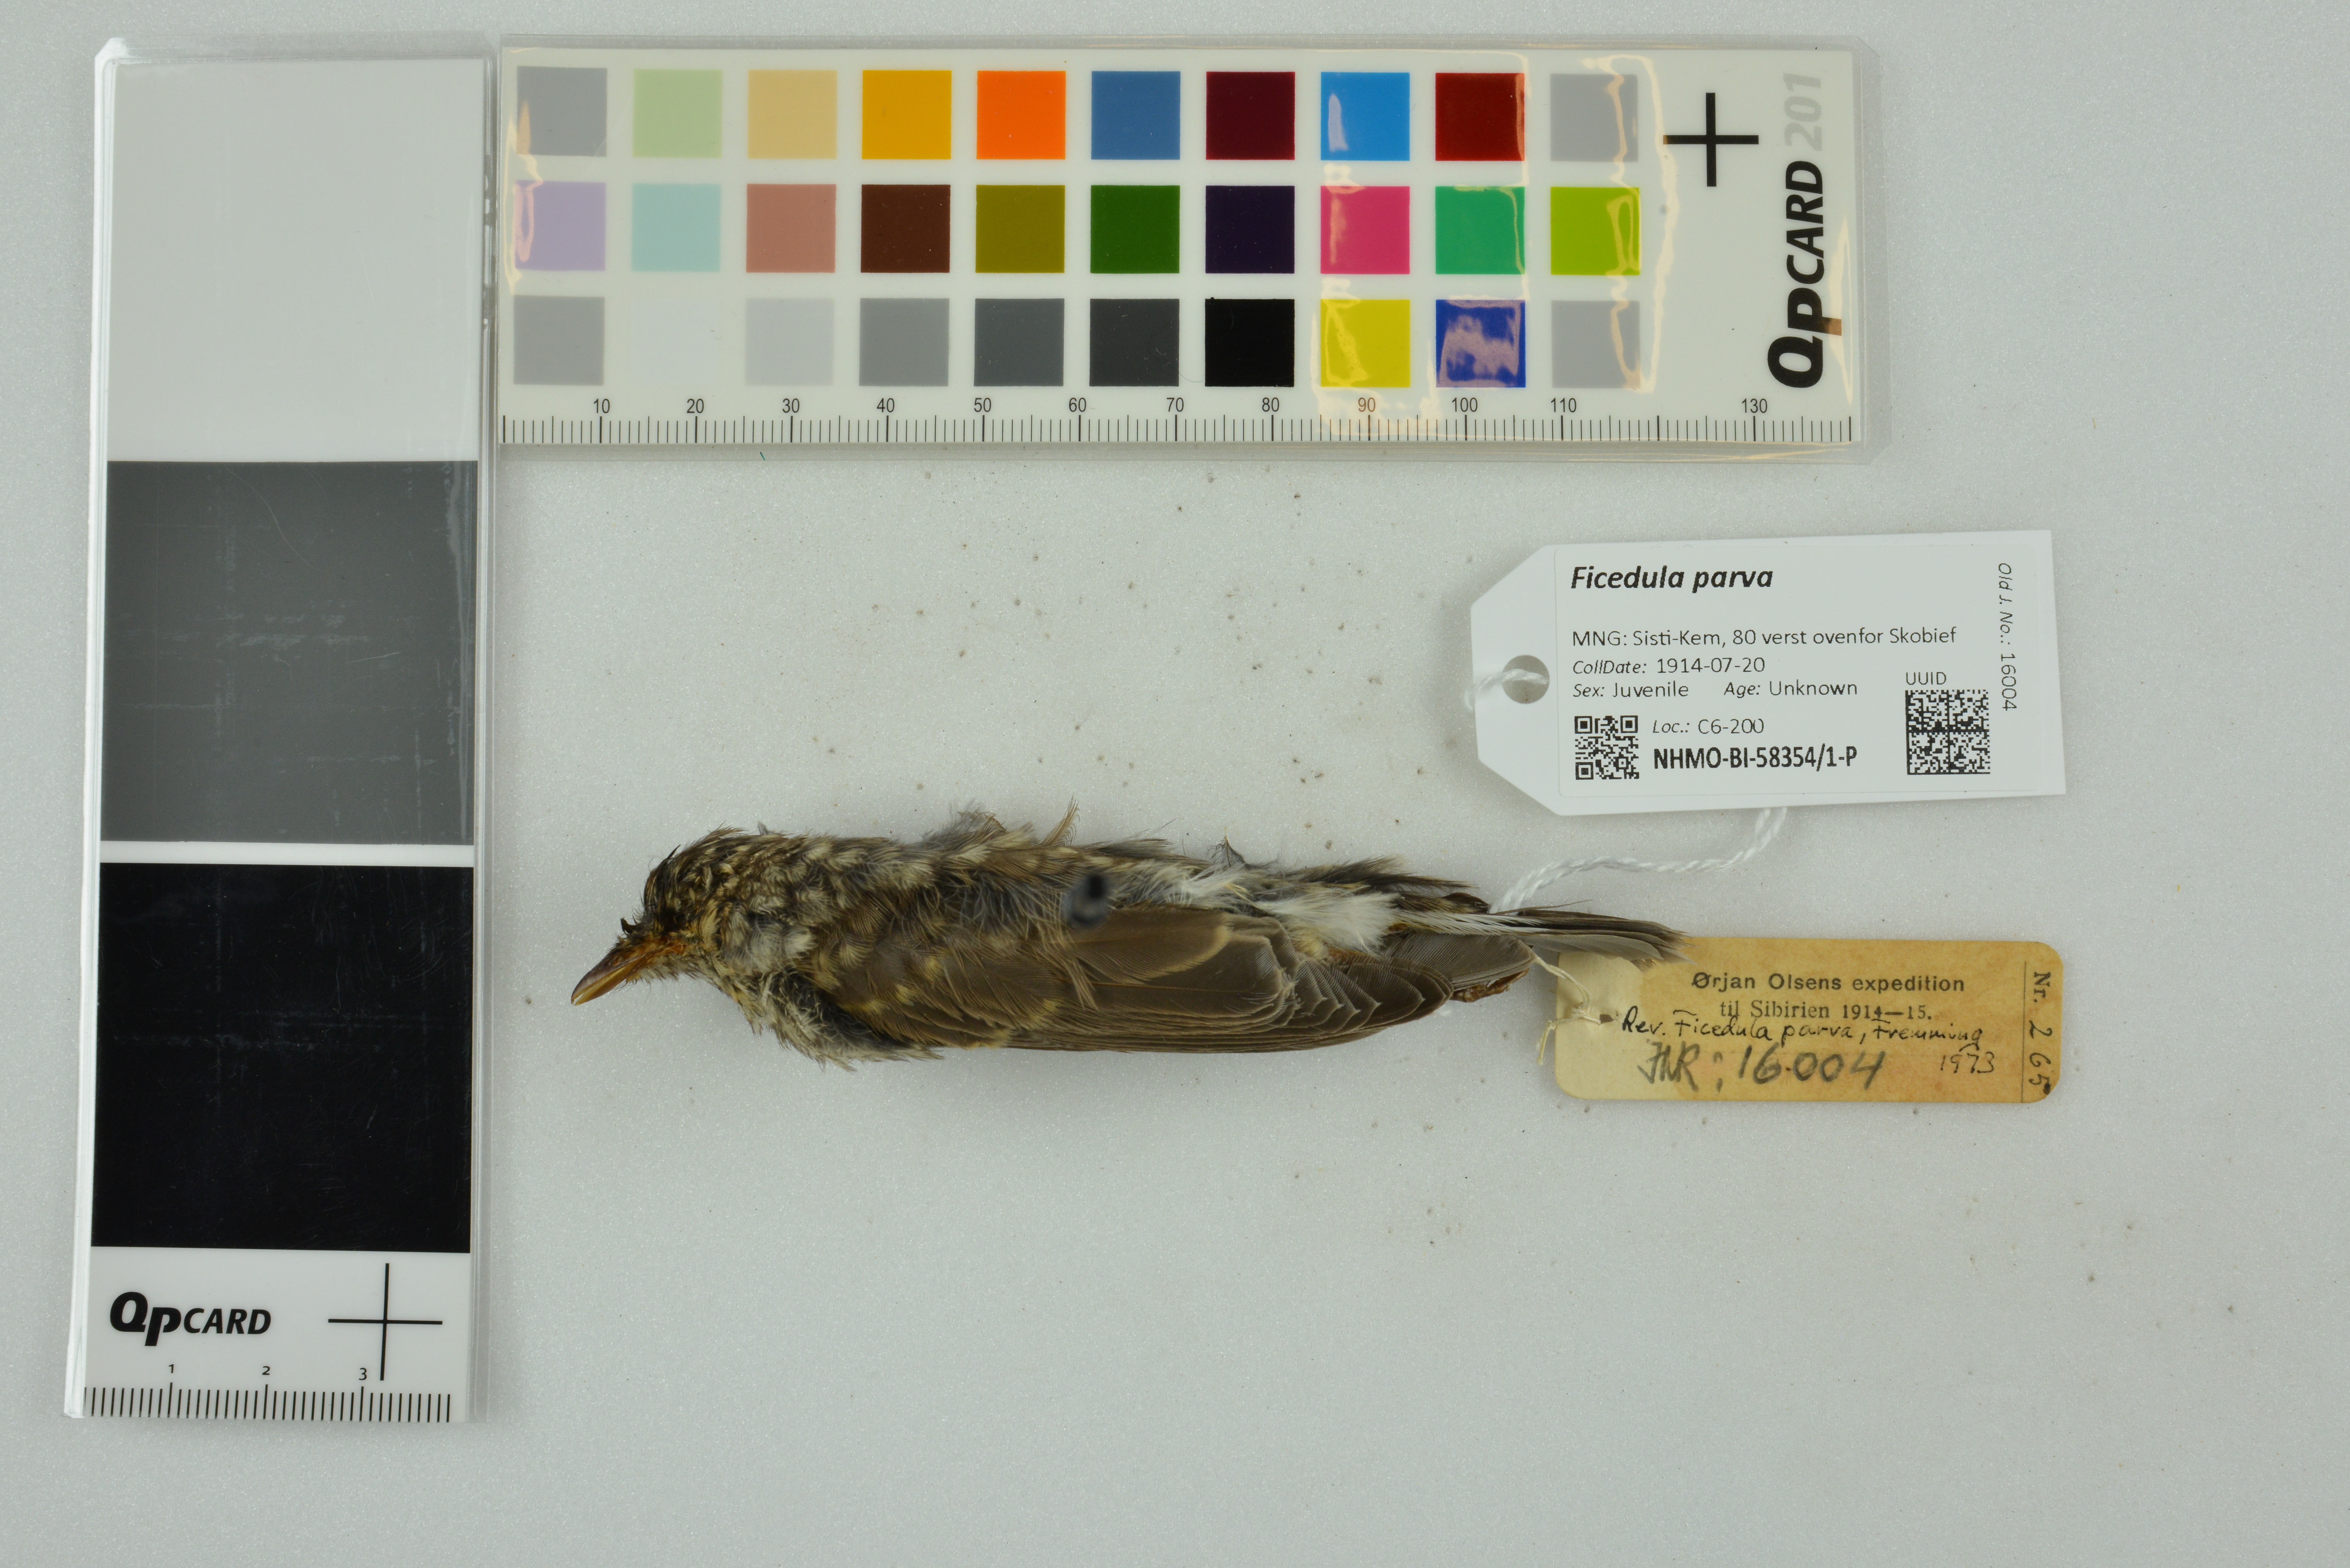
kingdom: Animalia
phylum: Chordata
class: Aves
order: Passeriformes
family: Muscicapidae
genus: Ficedula
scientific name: Ficedula parva
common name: Red-breasted flycatcher
